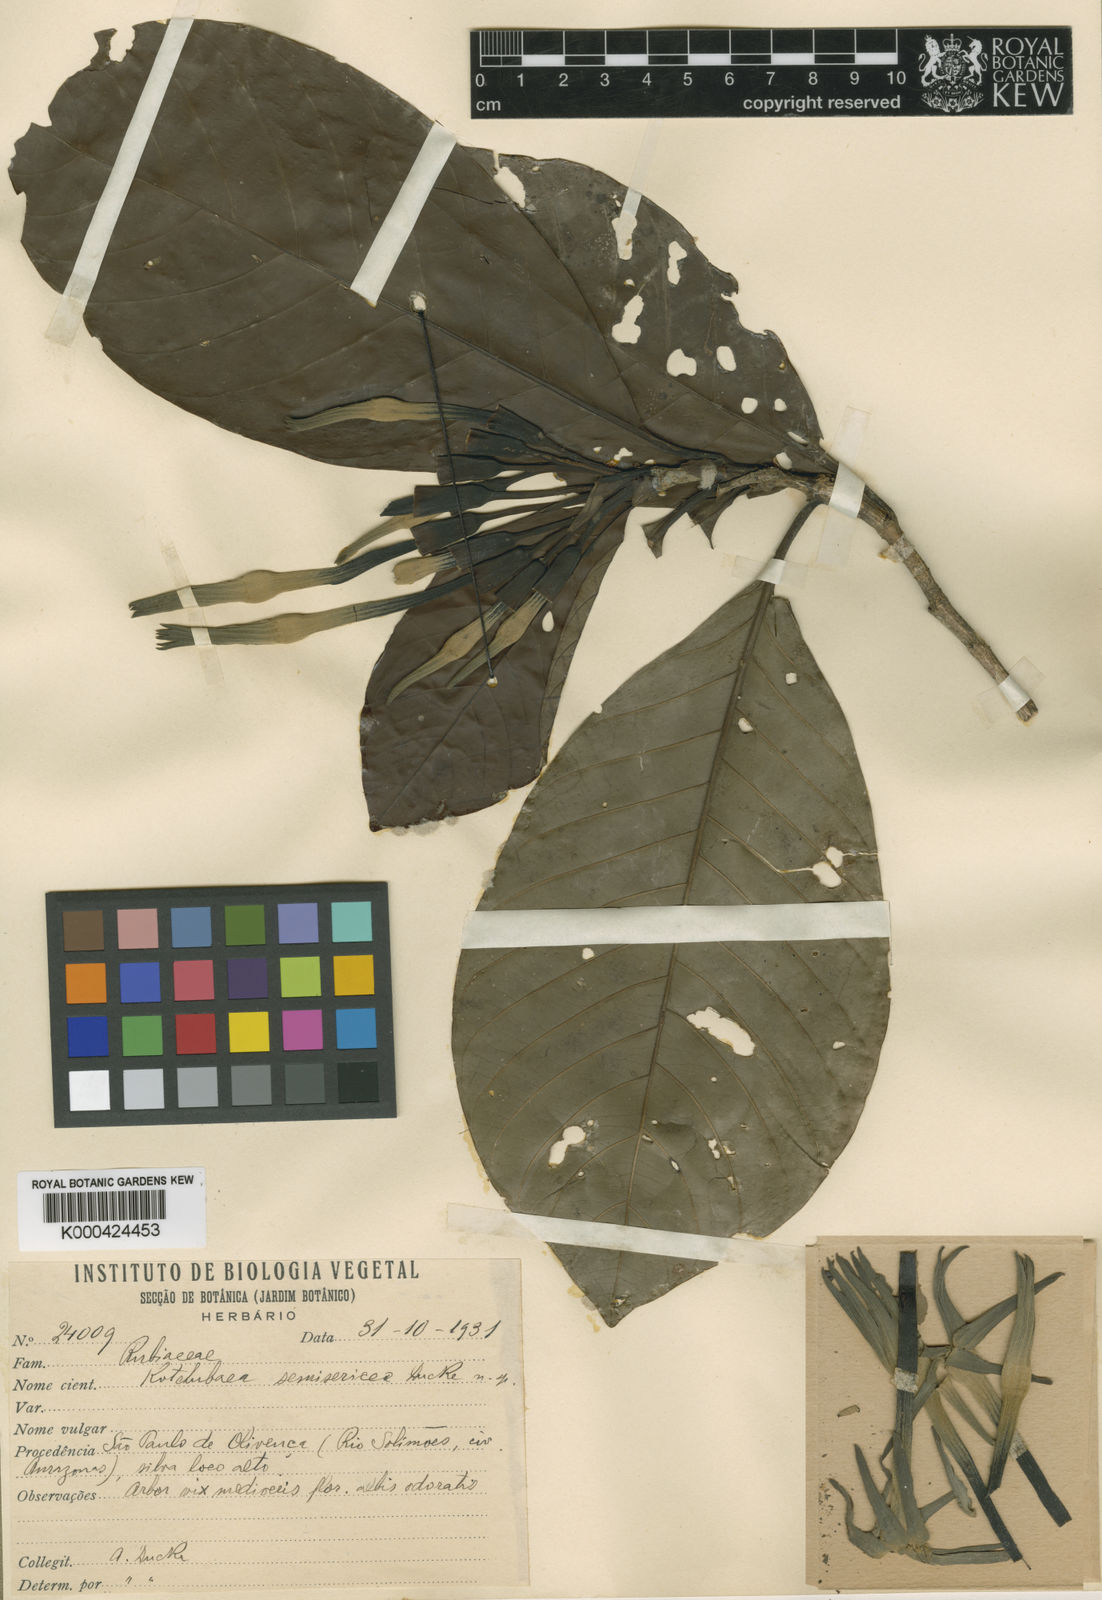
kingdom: Plantae
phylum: Tracheophyta
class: Magnoliopsida
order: Gentianales
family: Rubiaceae
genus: Kutchubaea
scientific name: Kutchubaea semisericea
